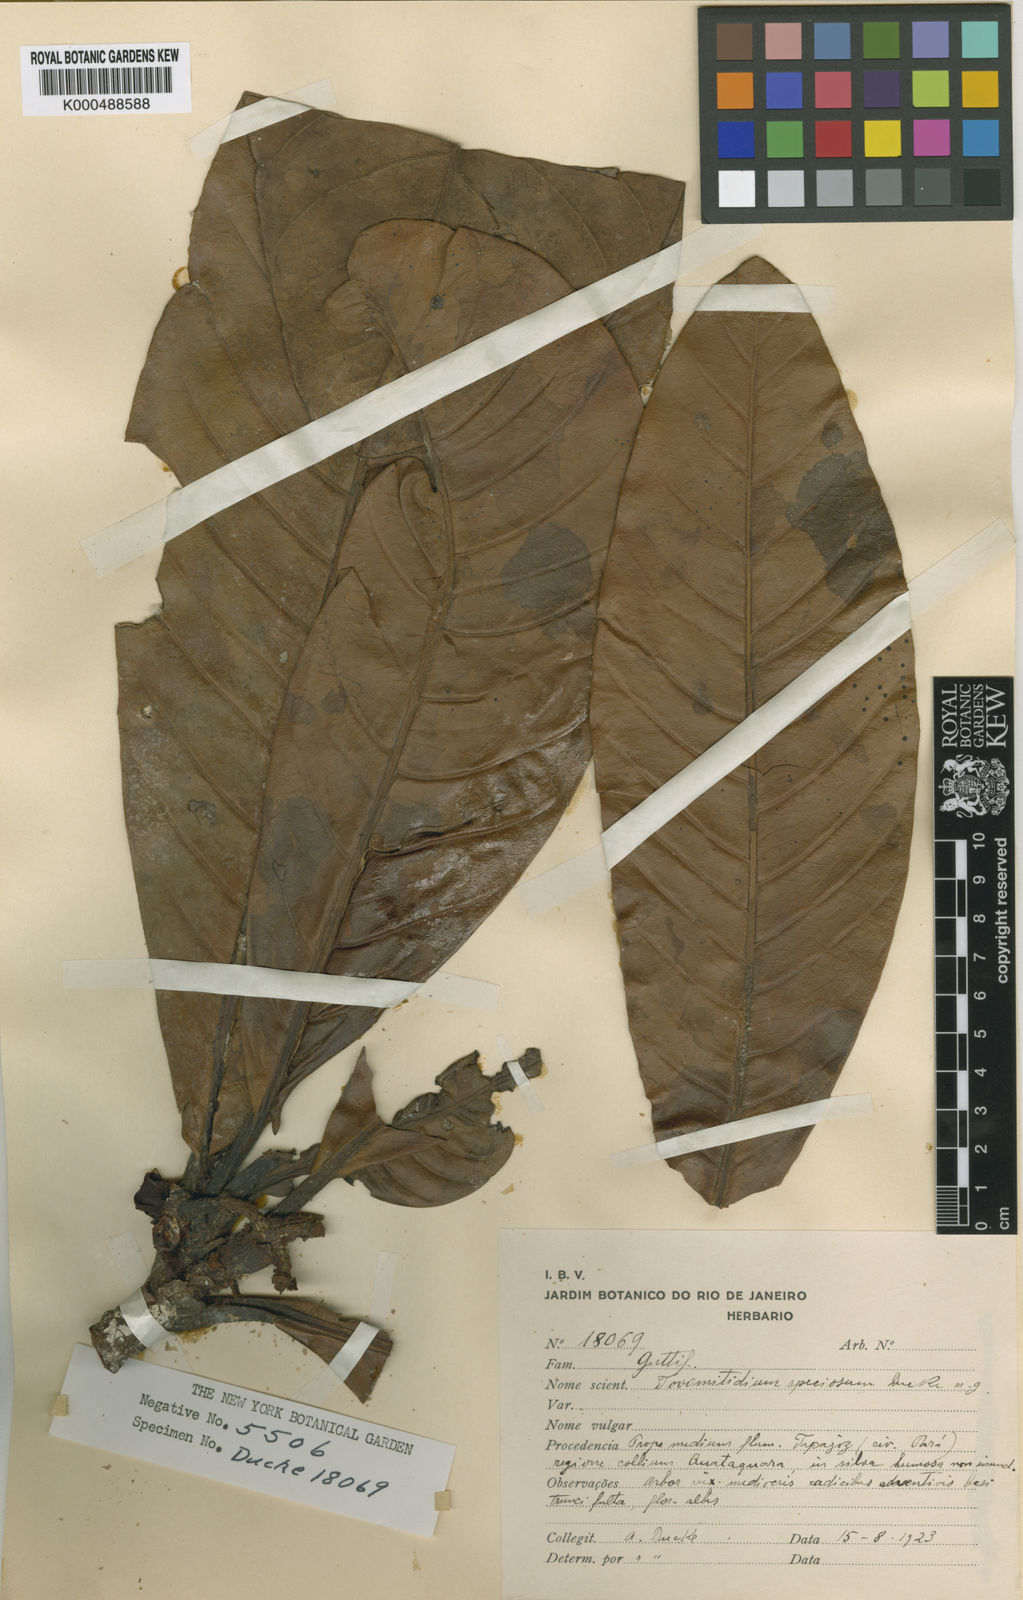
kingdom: Plantae
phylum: Tracheophyta
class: Magnoliopsida
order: Malpighiales
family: Clusiaceae
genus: Thysanostemon
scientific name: Thysanostemon
